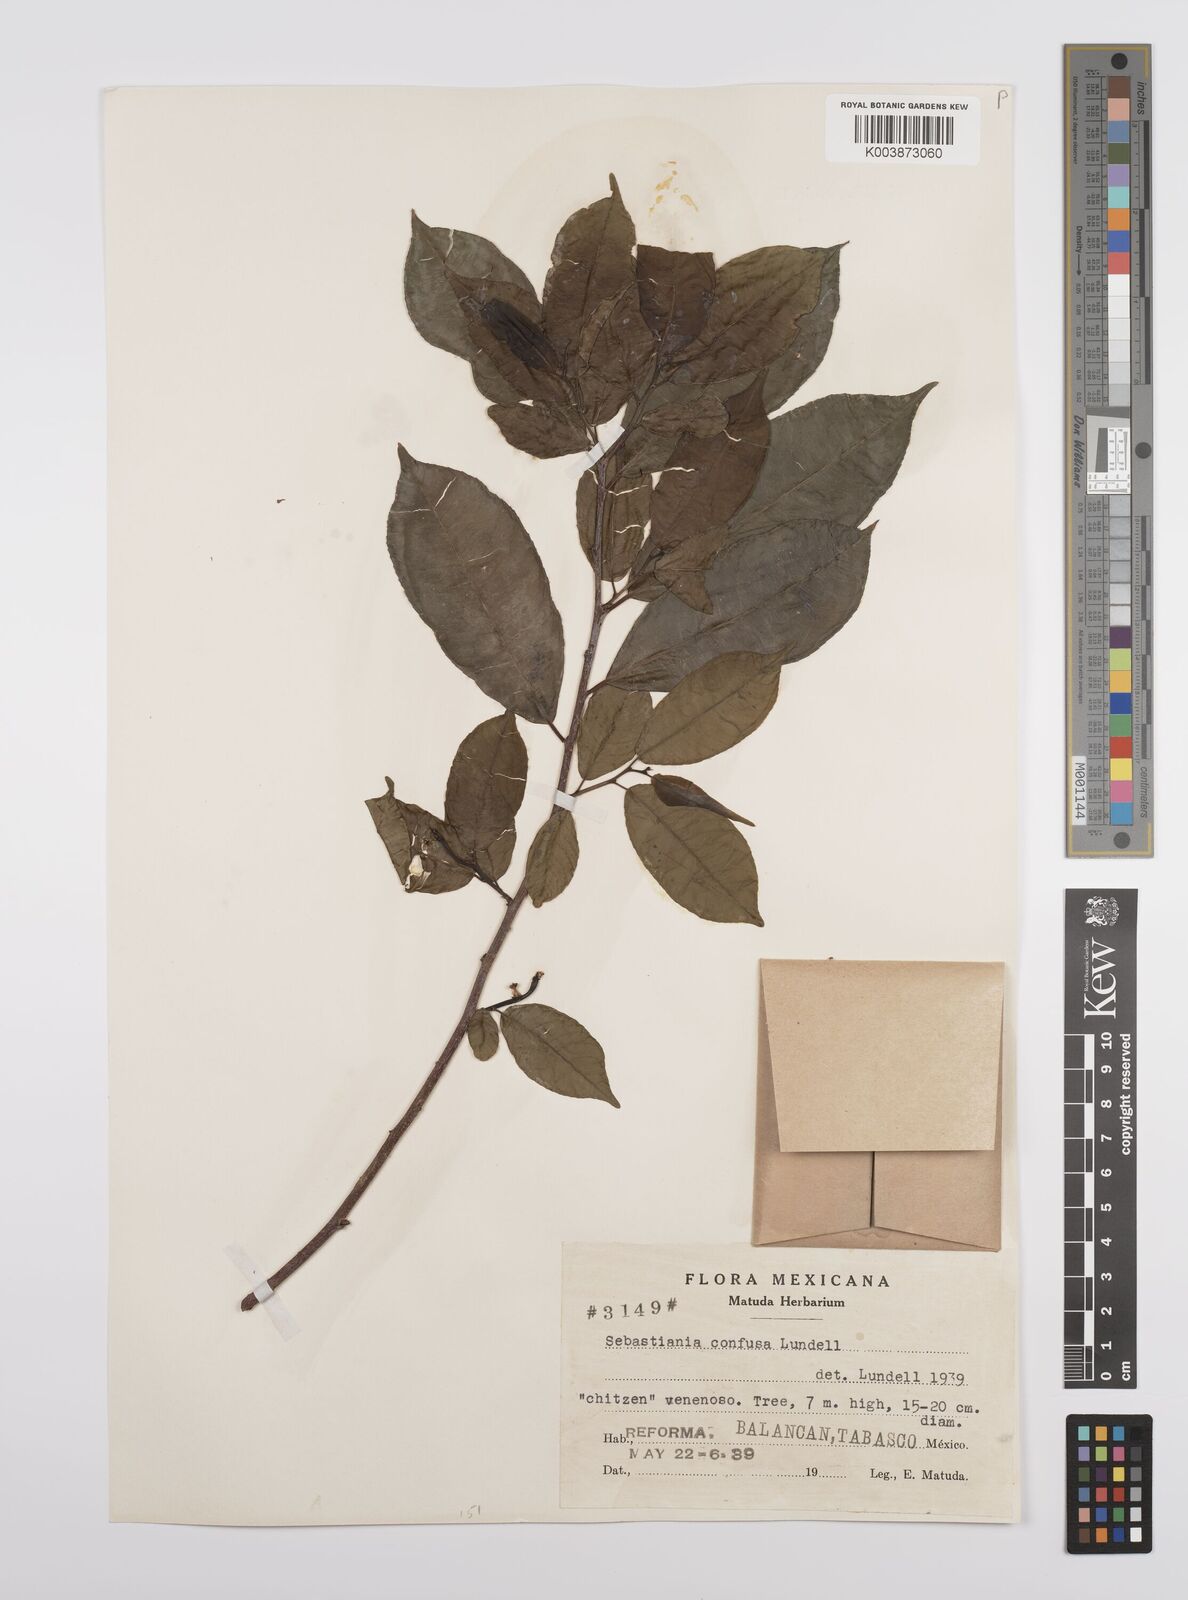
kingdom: Plantae
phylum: Tracheophyta
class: Magnoliopsida
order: Malpighiales
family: Euphorbiaceae
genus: Pleradenophora
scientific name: Pleradenophora tuerckheimiana
